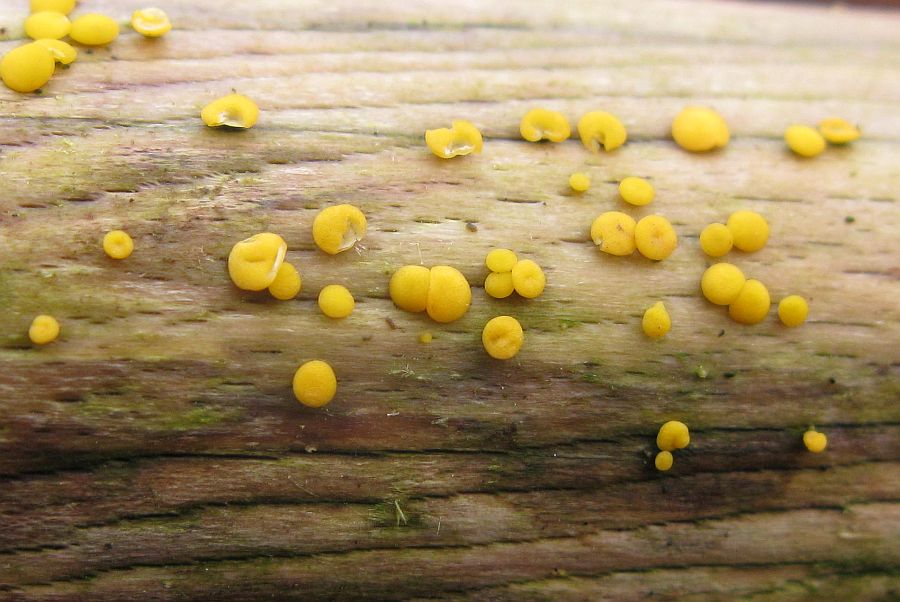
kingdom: Fungi
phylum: Ascomycota
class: Leotiomycetes
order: Helotiales
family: Pezizellaceae
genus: Calycina
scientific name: Calycina citrina
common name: almindelig gulskive
